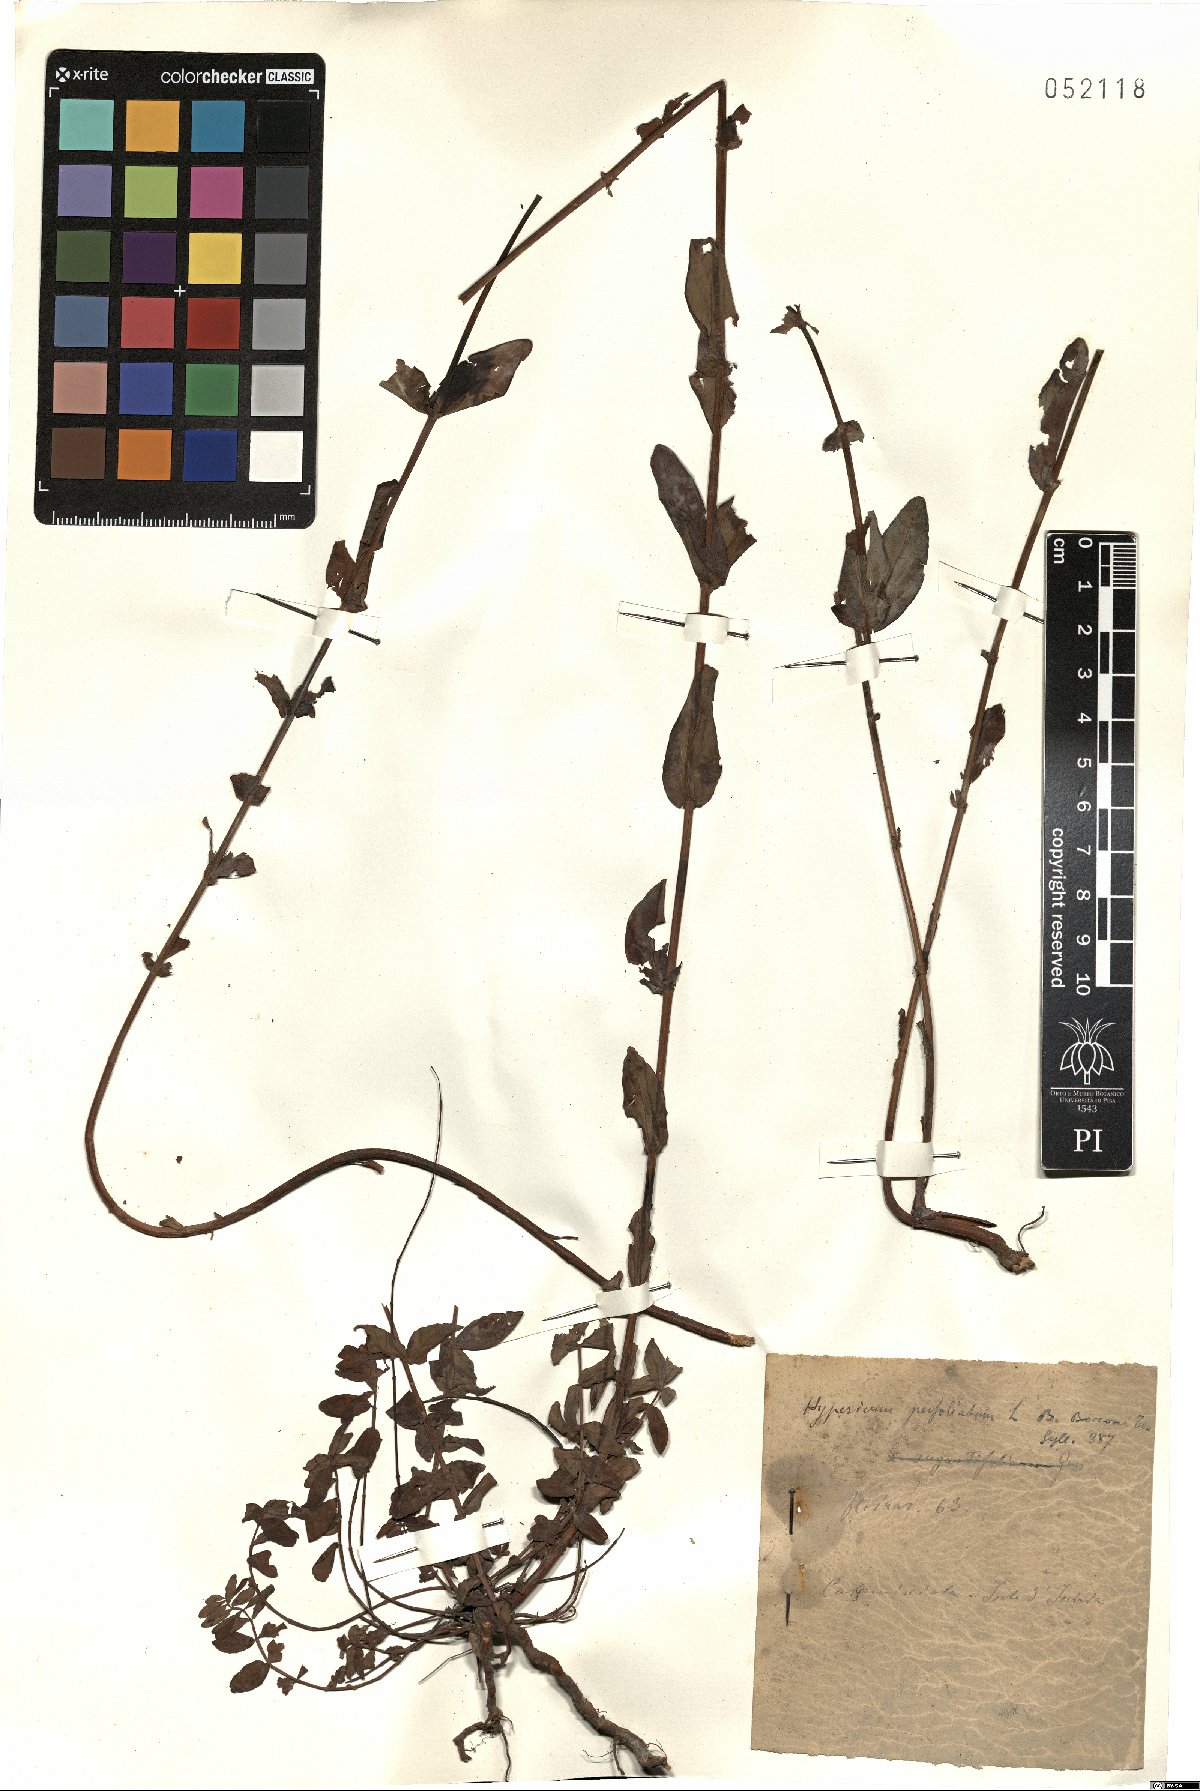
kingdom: Plantae
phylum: Tracheophyta
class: Magnoliopsida
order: Malpighiales
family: Hypericaceae
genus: Hypericum
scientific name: Hypericum perfoliatum
